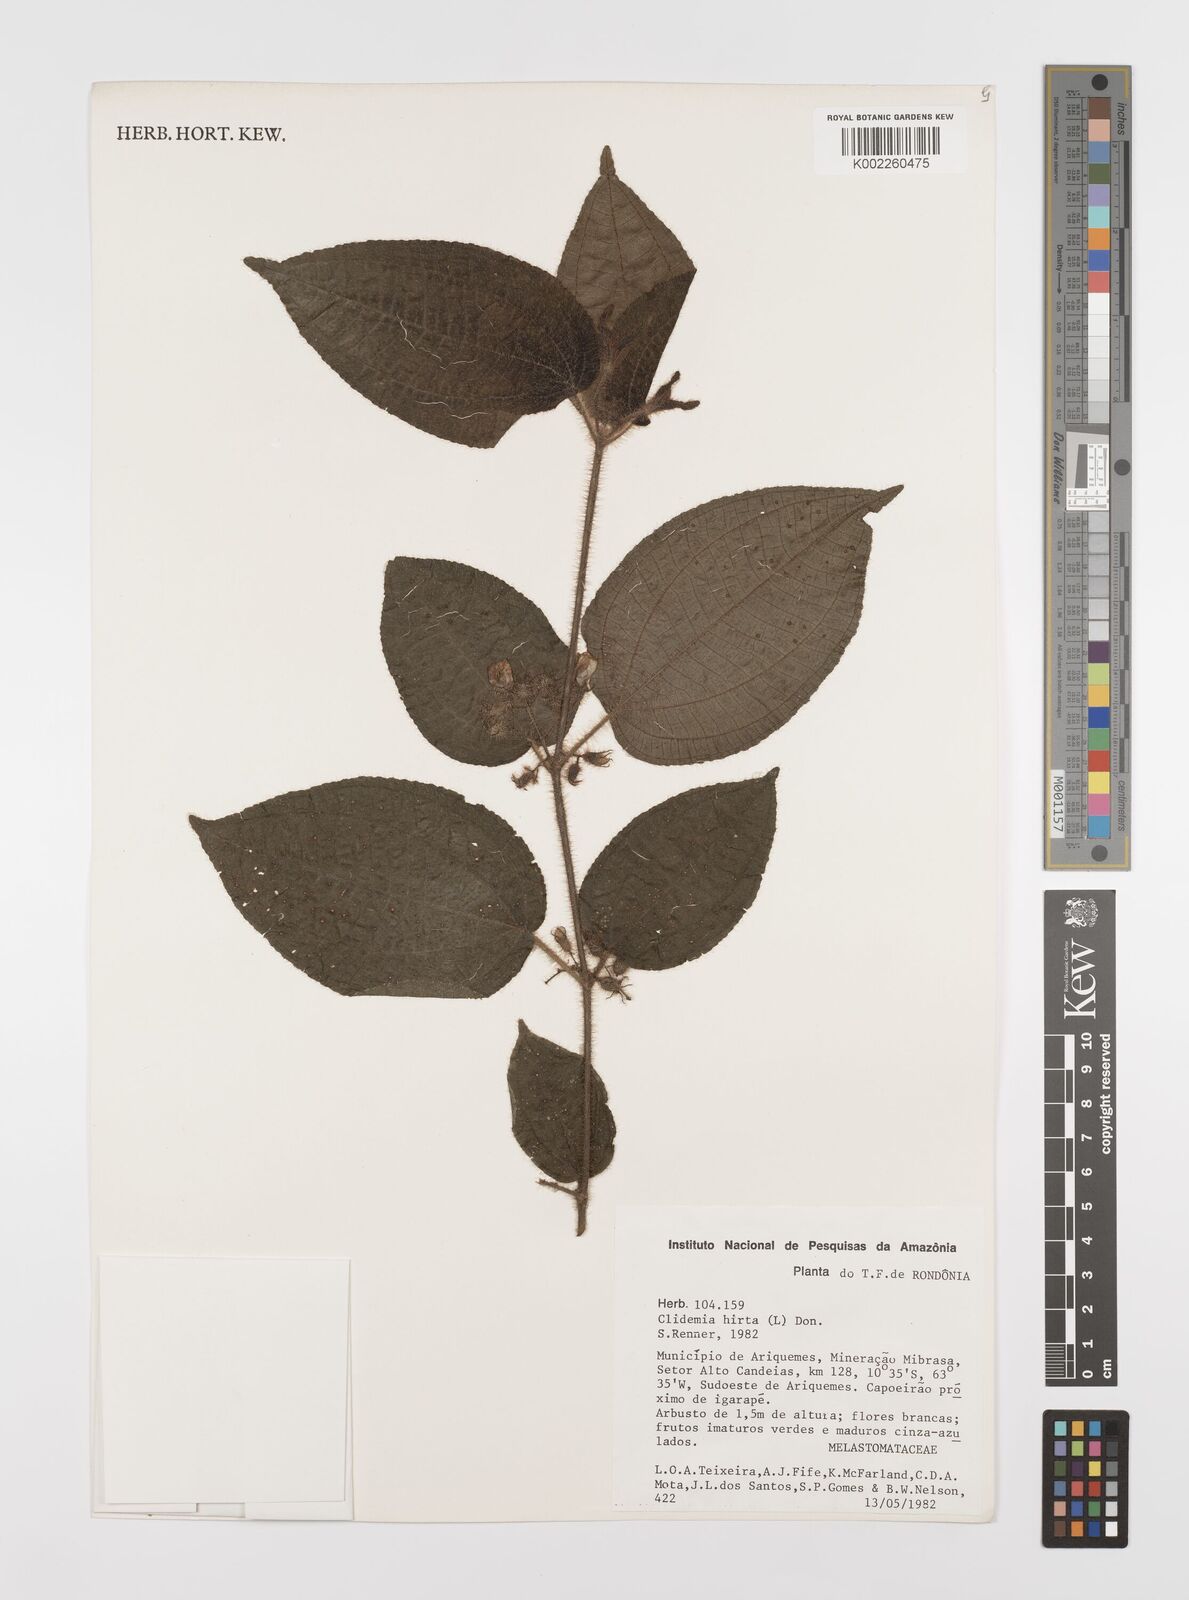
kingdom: Plantae
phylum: Tracheophyta
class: Magnoliopsida
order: Myrtales
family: Melastomataceae
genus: Miconia
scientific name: Miconia crenata
